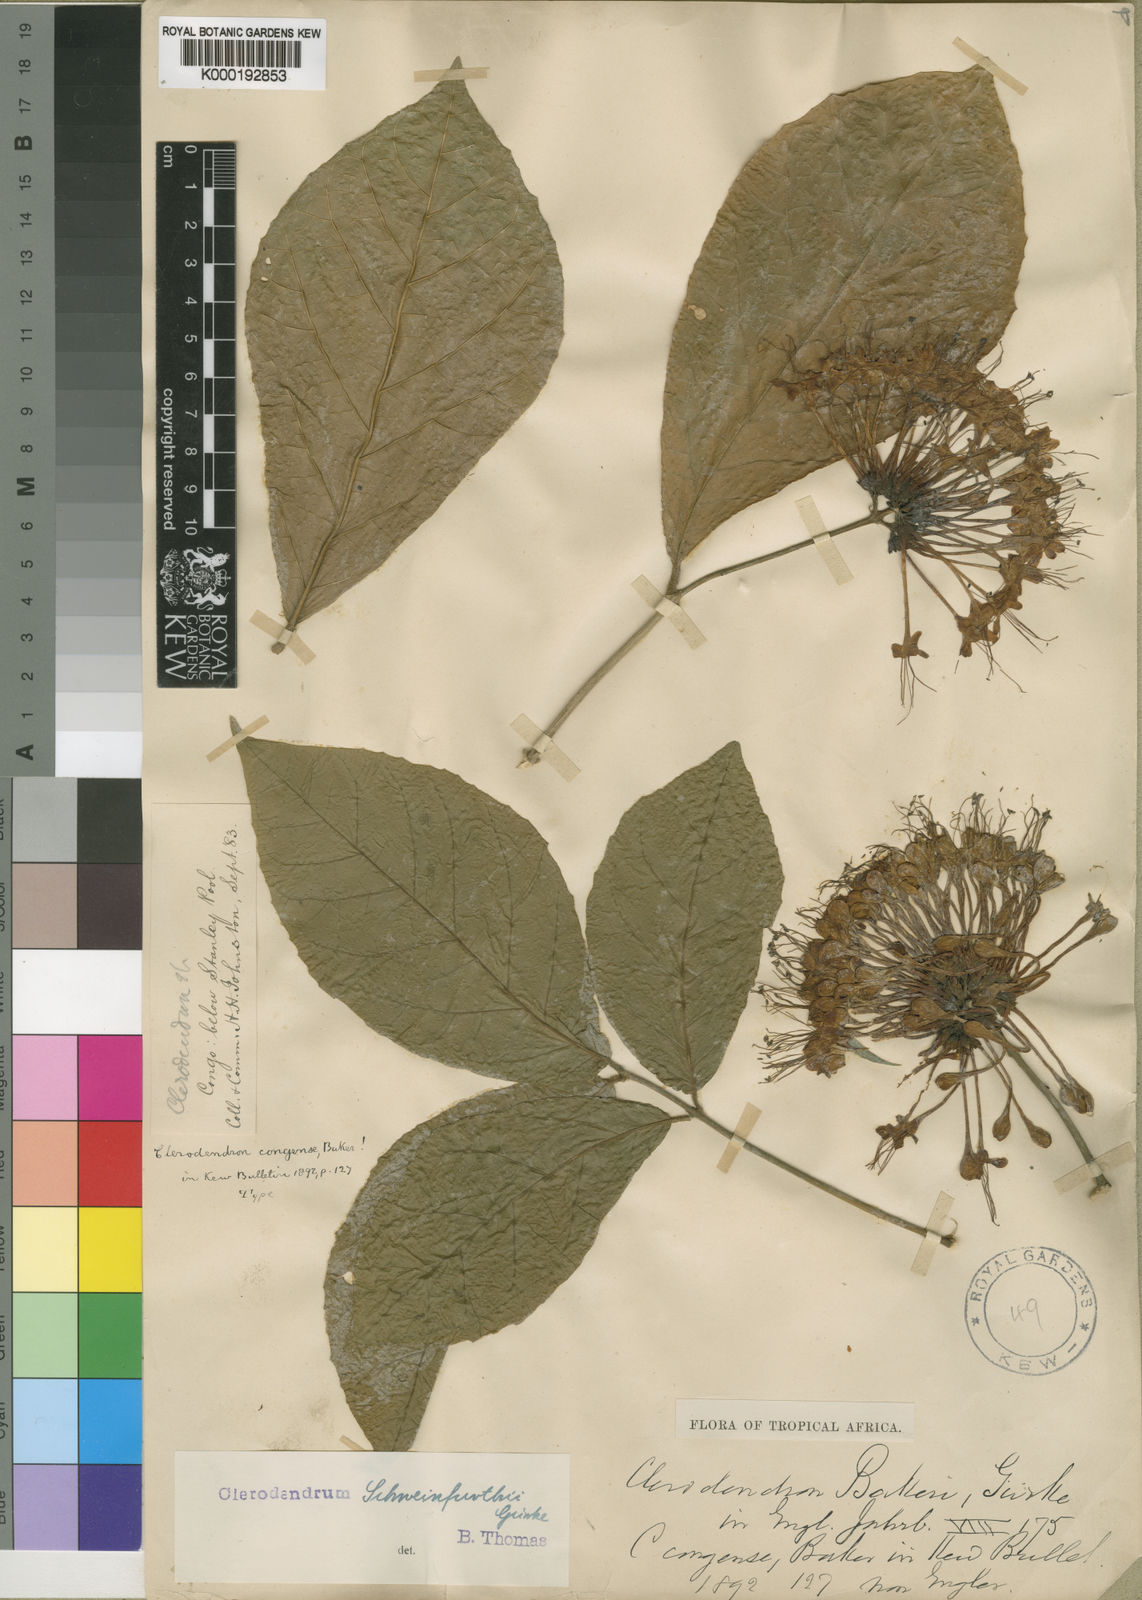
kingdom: Plantae
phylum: Tracheophyta
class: Magnoliopsida
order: Lamiales
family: Lamiaceae
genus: Clerodendrum
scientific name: Clerodendrum
